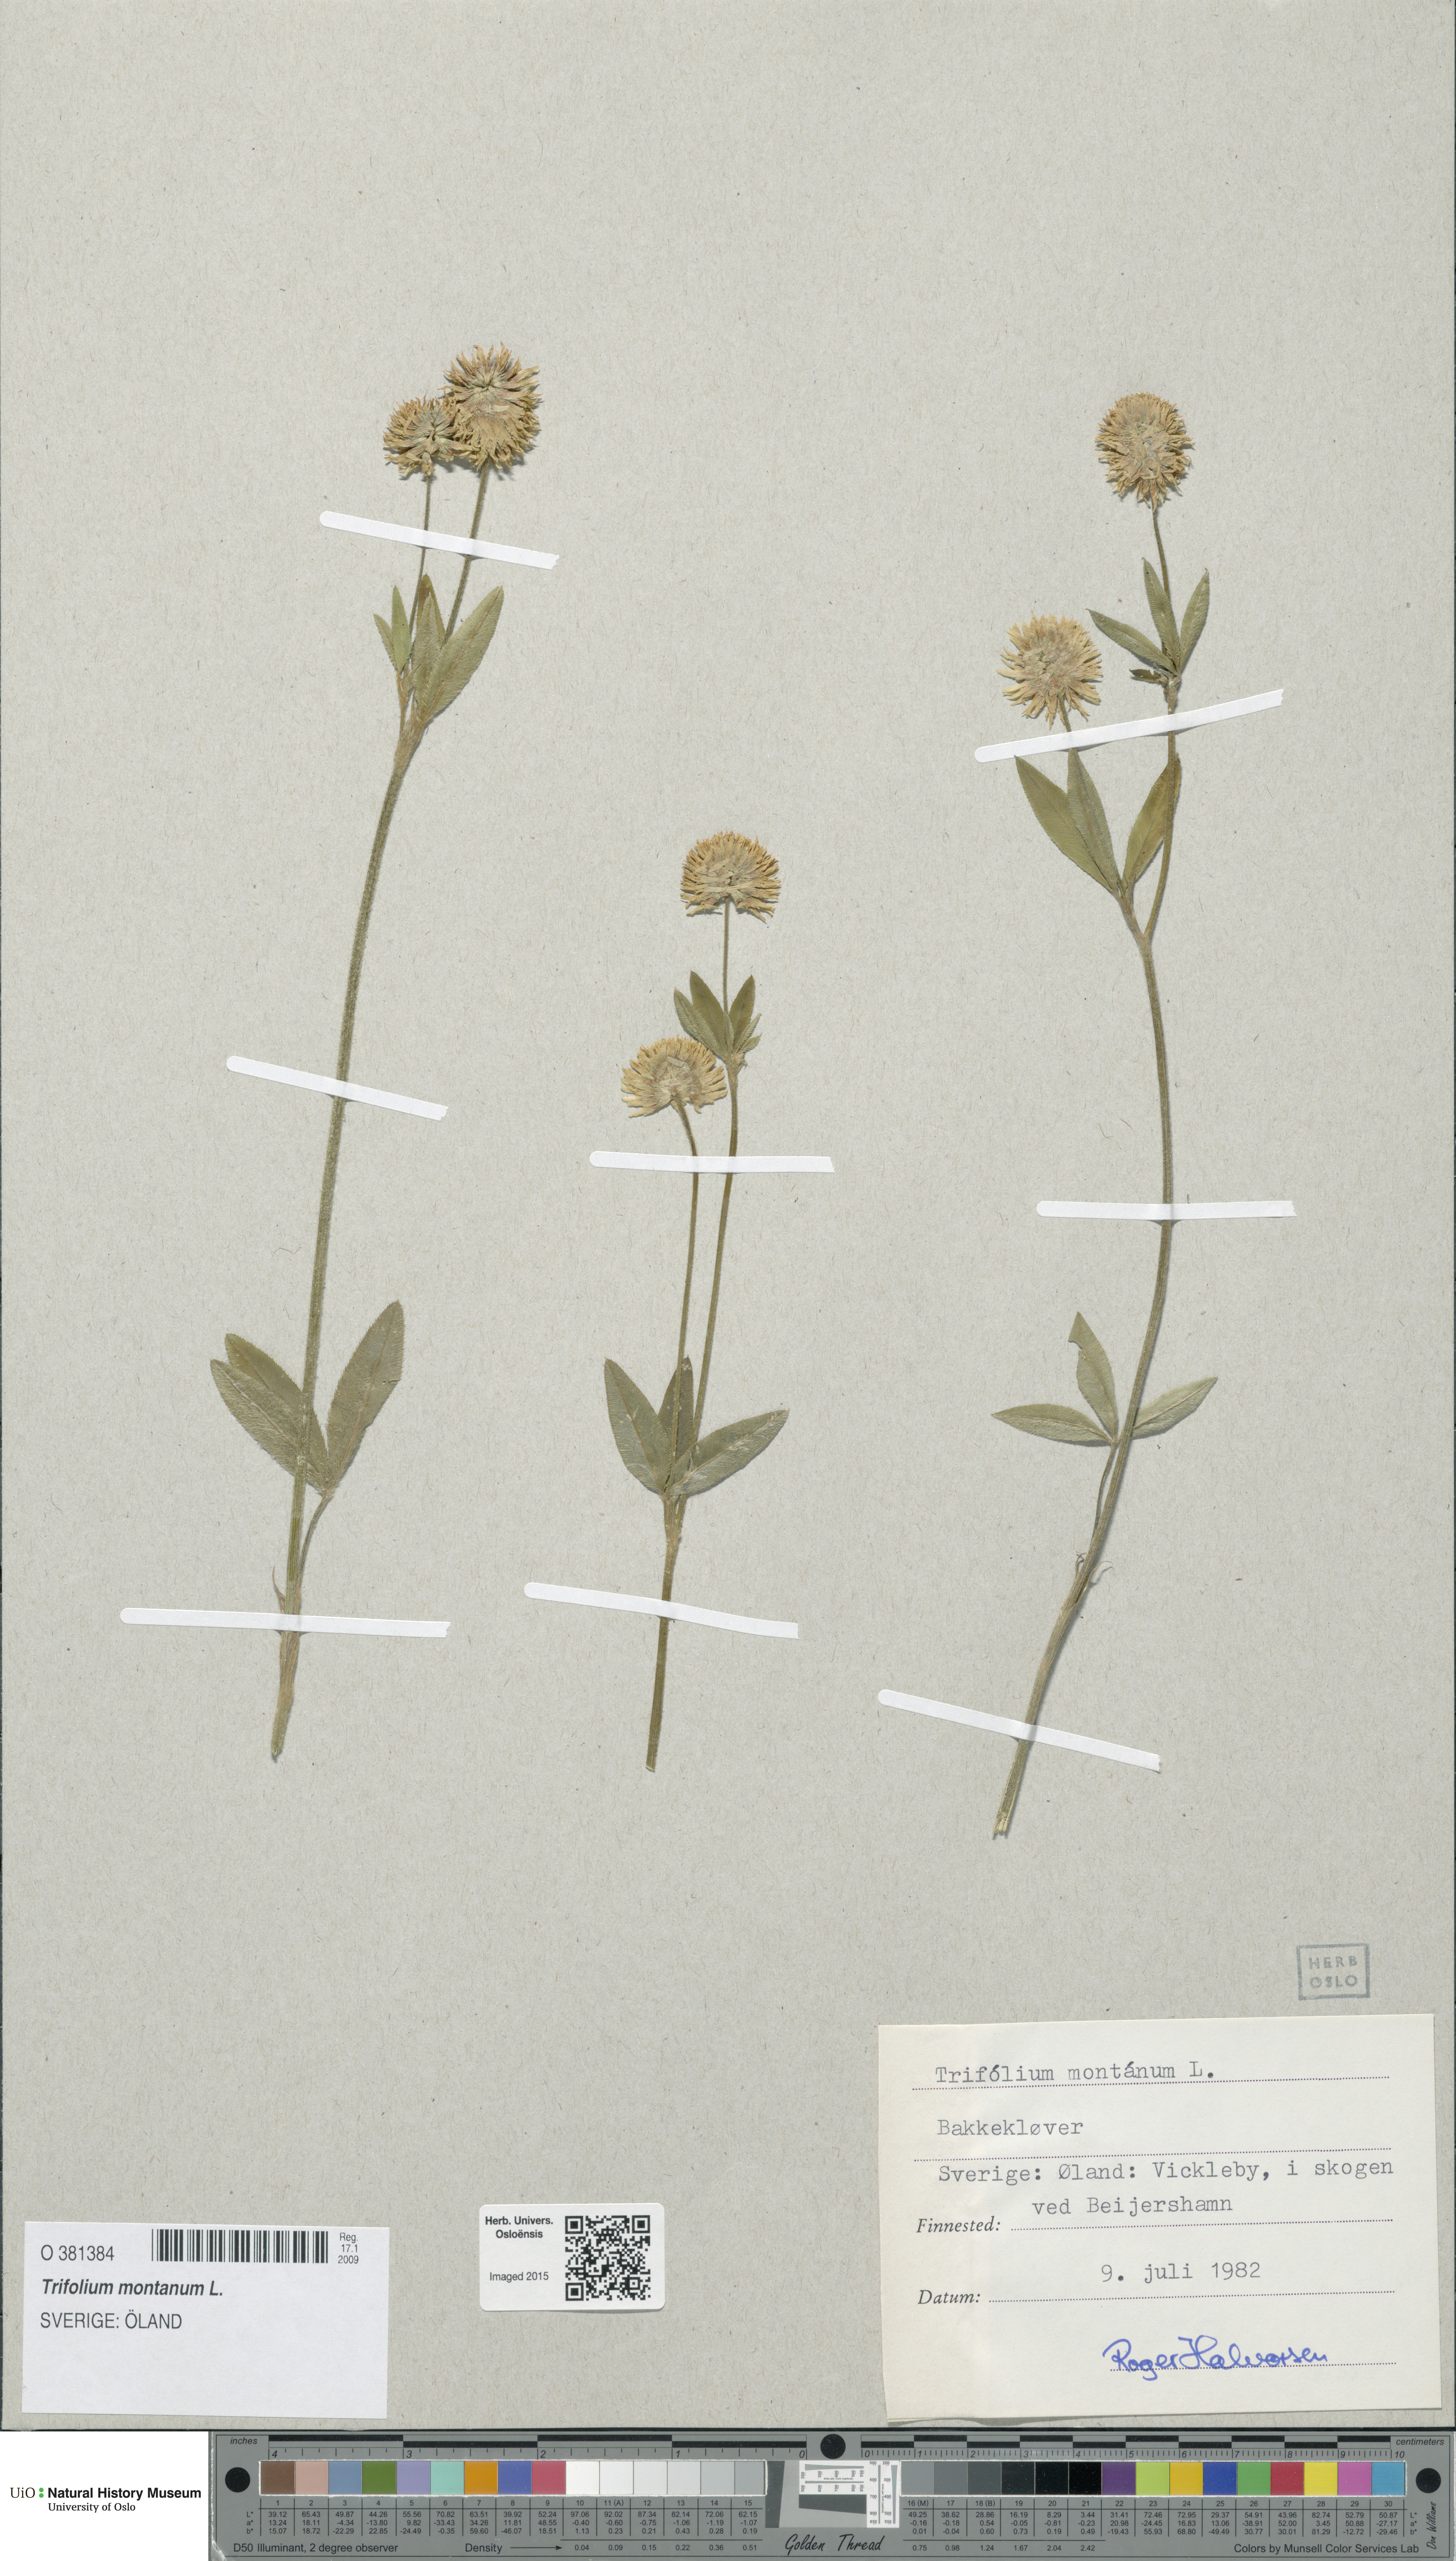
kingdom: Plantae
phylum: Tracheophyta
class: Magnoliopsida
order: Fabales
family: Fabaceae
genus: Trifolium
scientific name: Trifolium montanum
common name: Mountain clover
